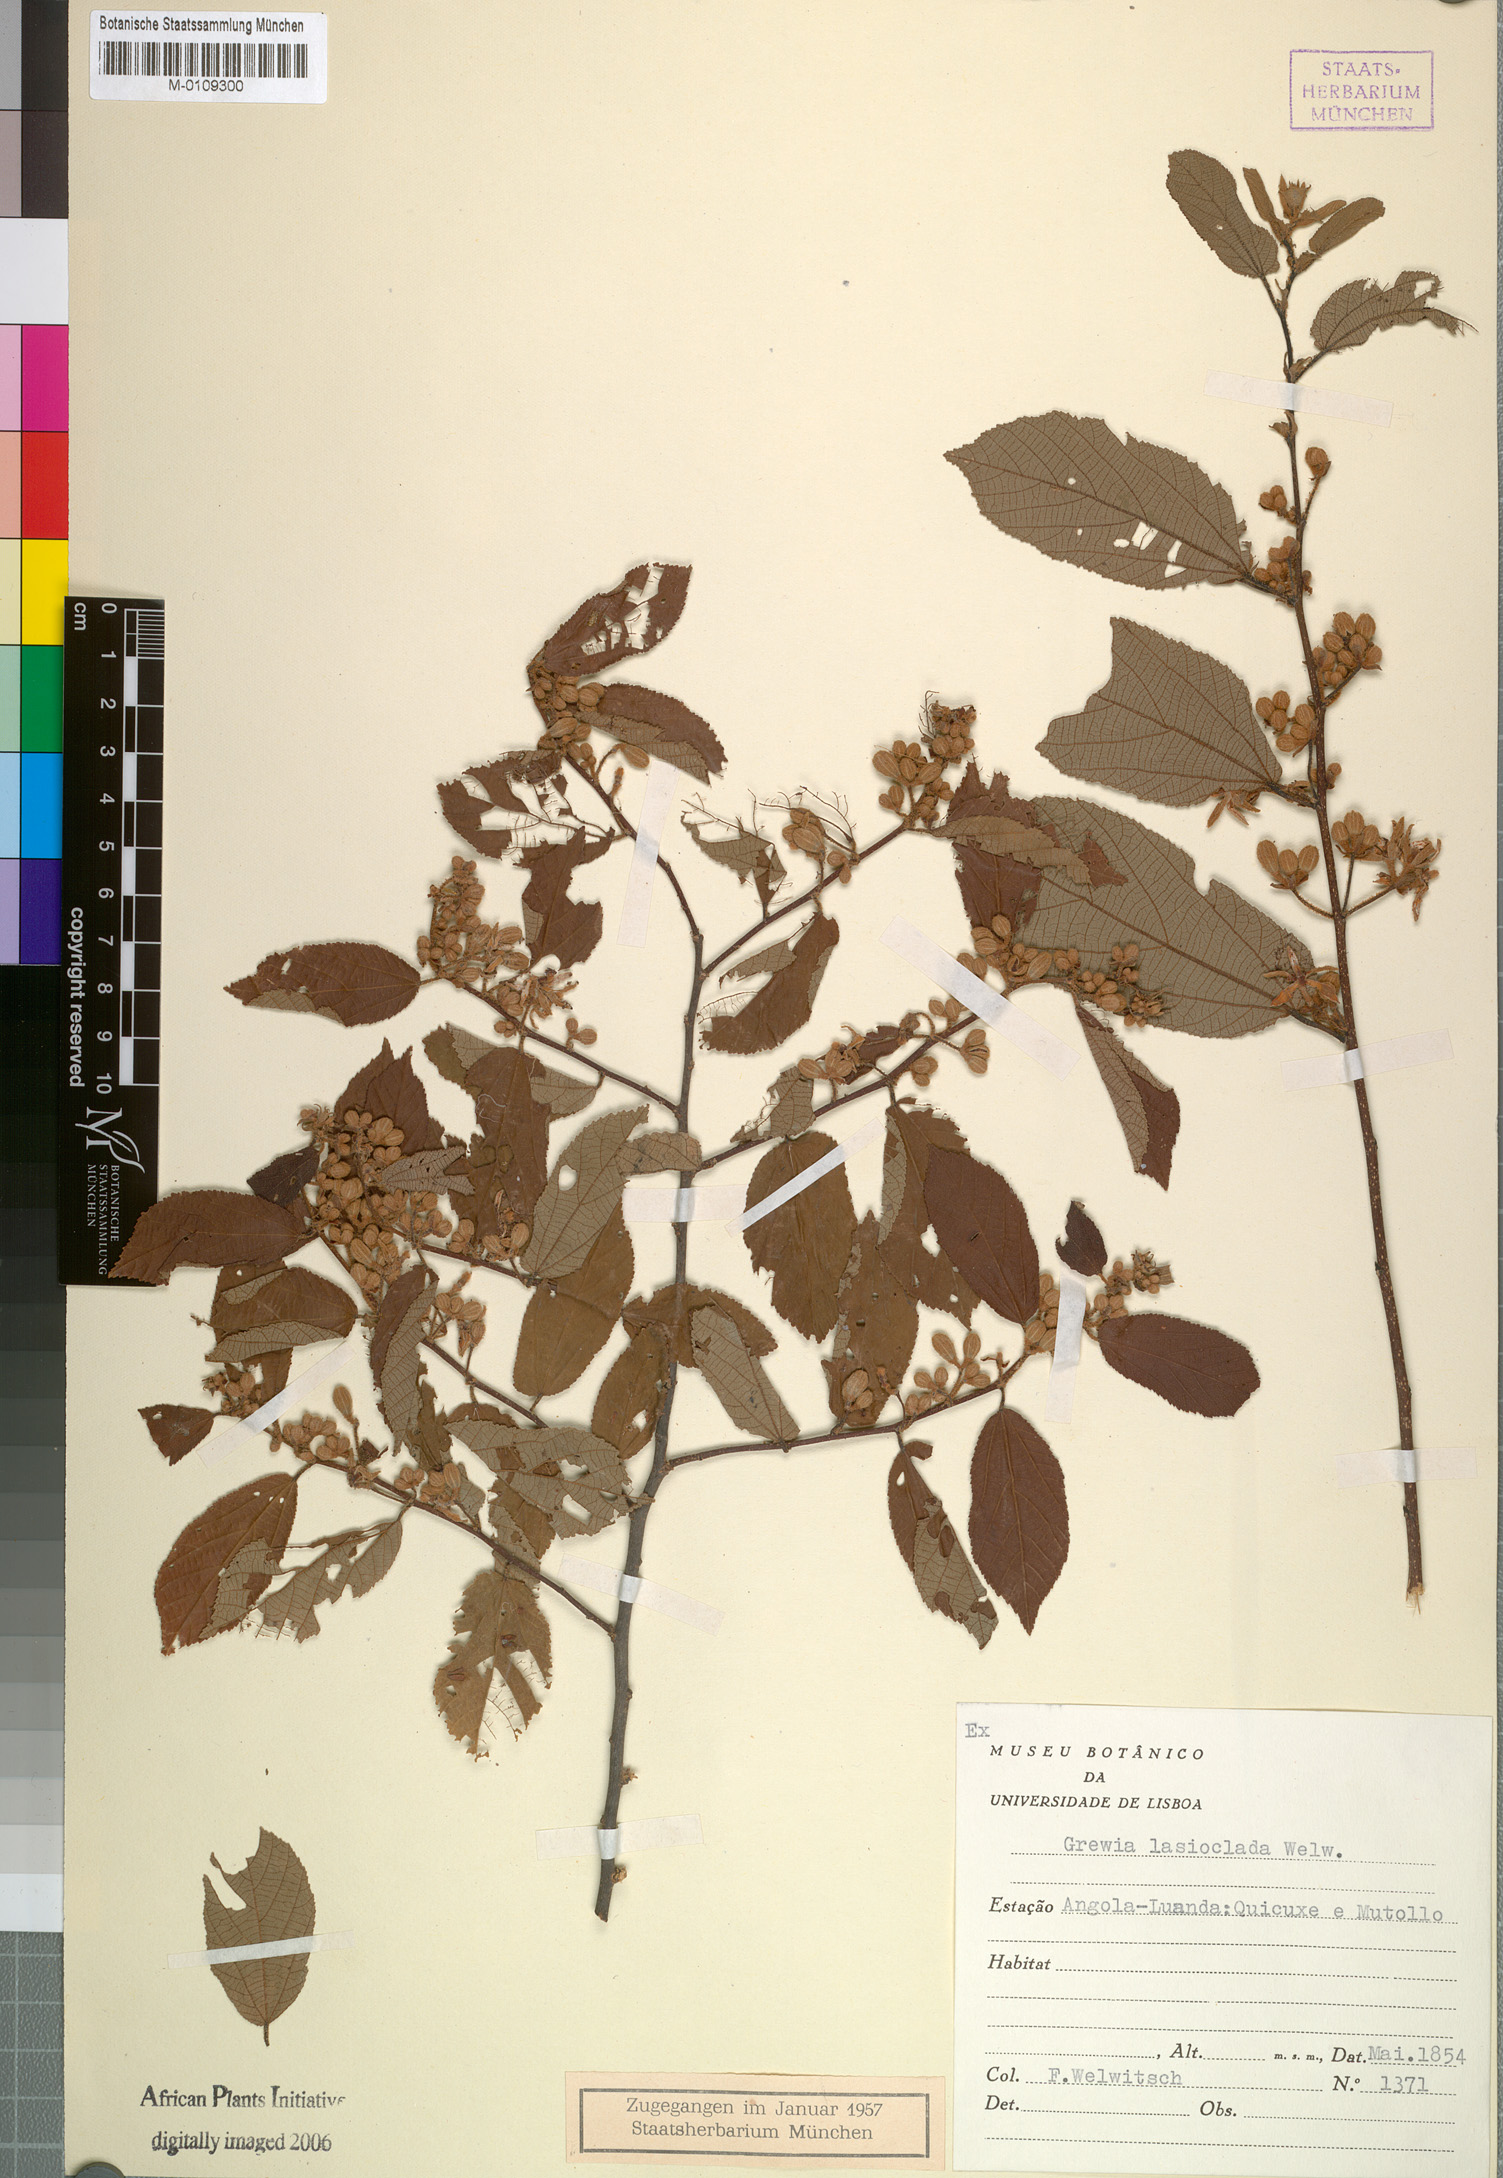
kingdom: Plantae
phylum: Tracheophyta
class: Magnoliopsida
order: Malvales
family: Malvaceae
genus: Grewia
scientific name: Grewia lasioclada
